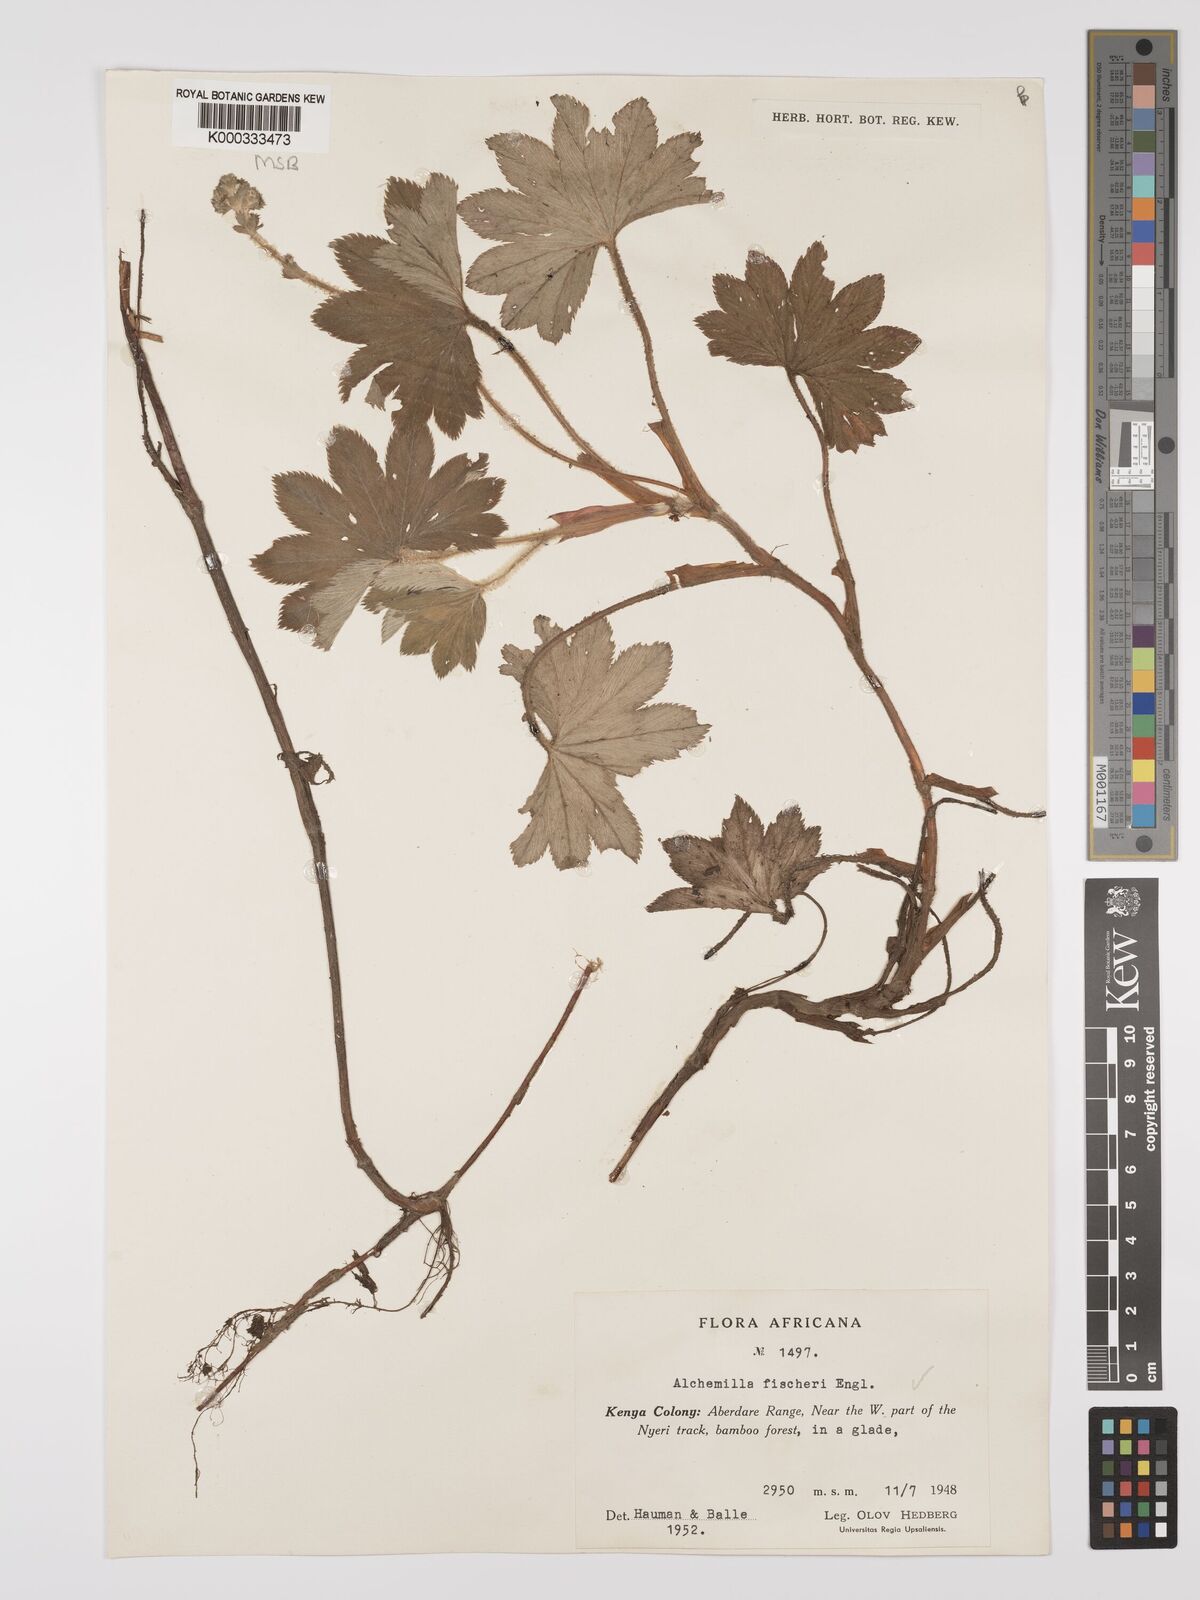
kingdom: Plantae
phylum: Tracheophyta
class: Magnoliopsida
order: Rosales
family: Rosaceae
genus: Alchemilla
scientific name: Alchemilla fischeri
